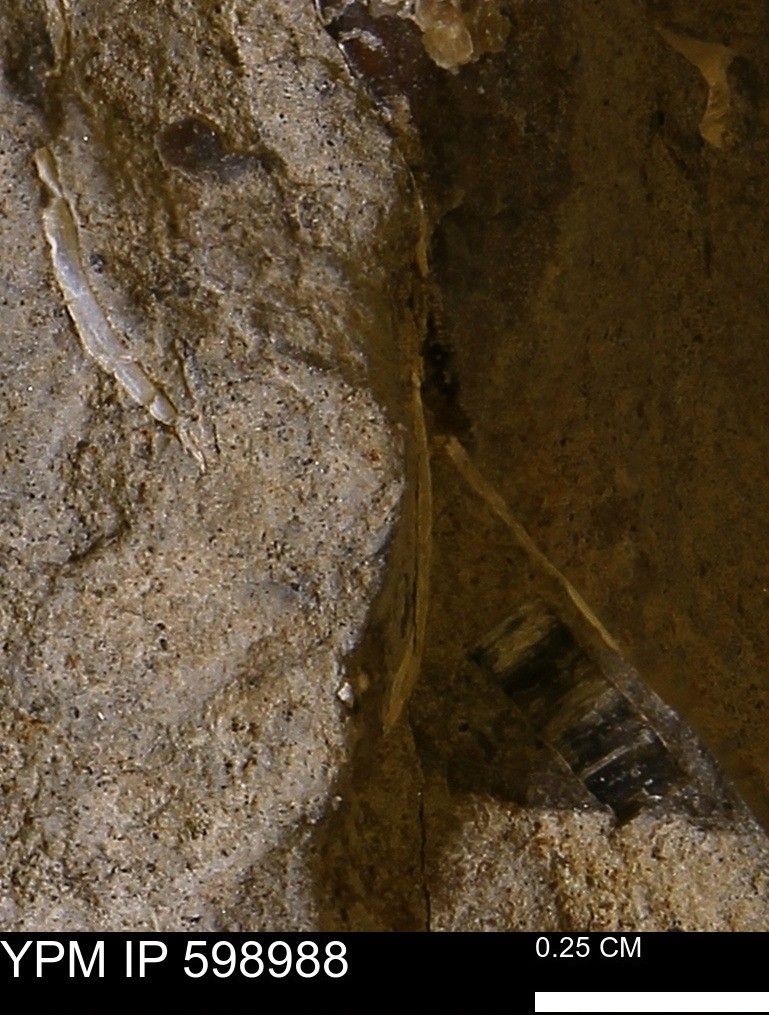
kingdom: Animalia
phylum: Mollusca
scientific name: Mollusca
